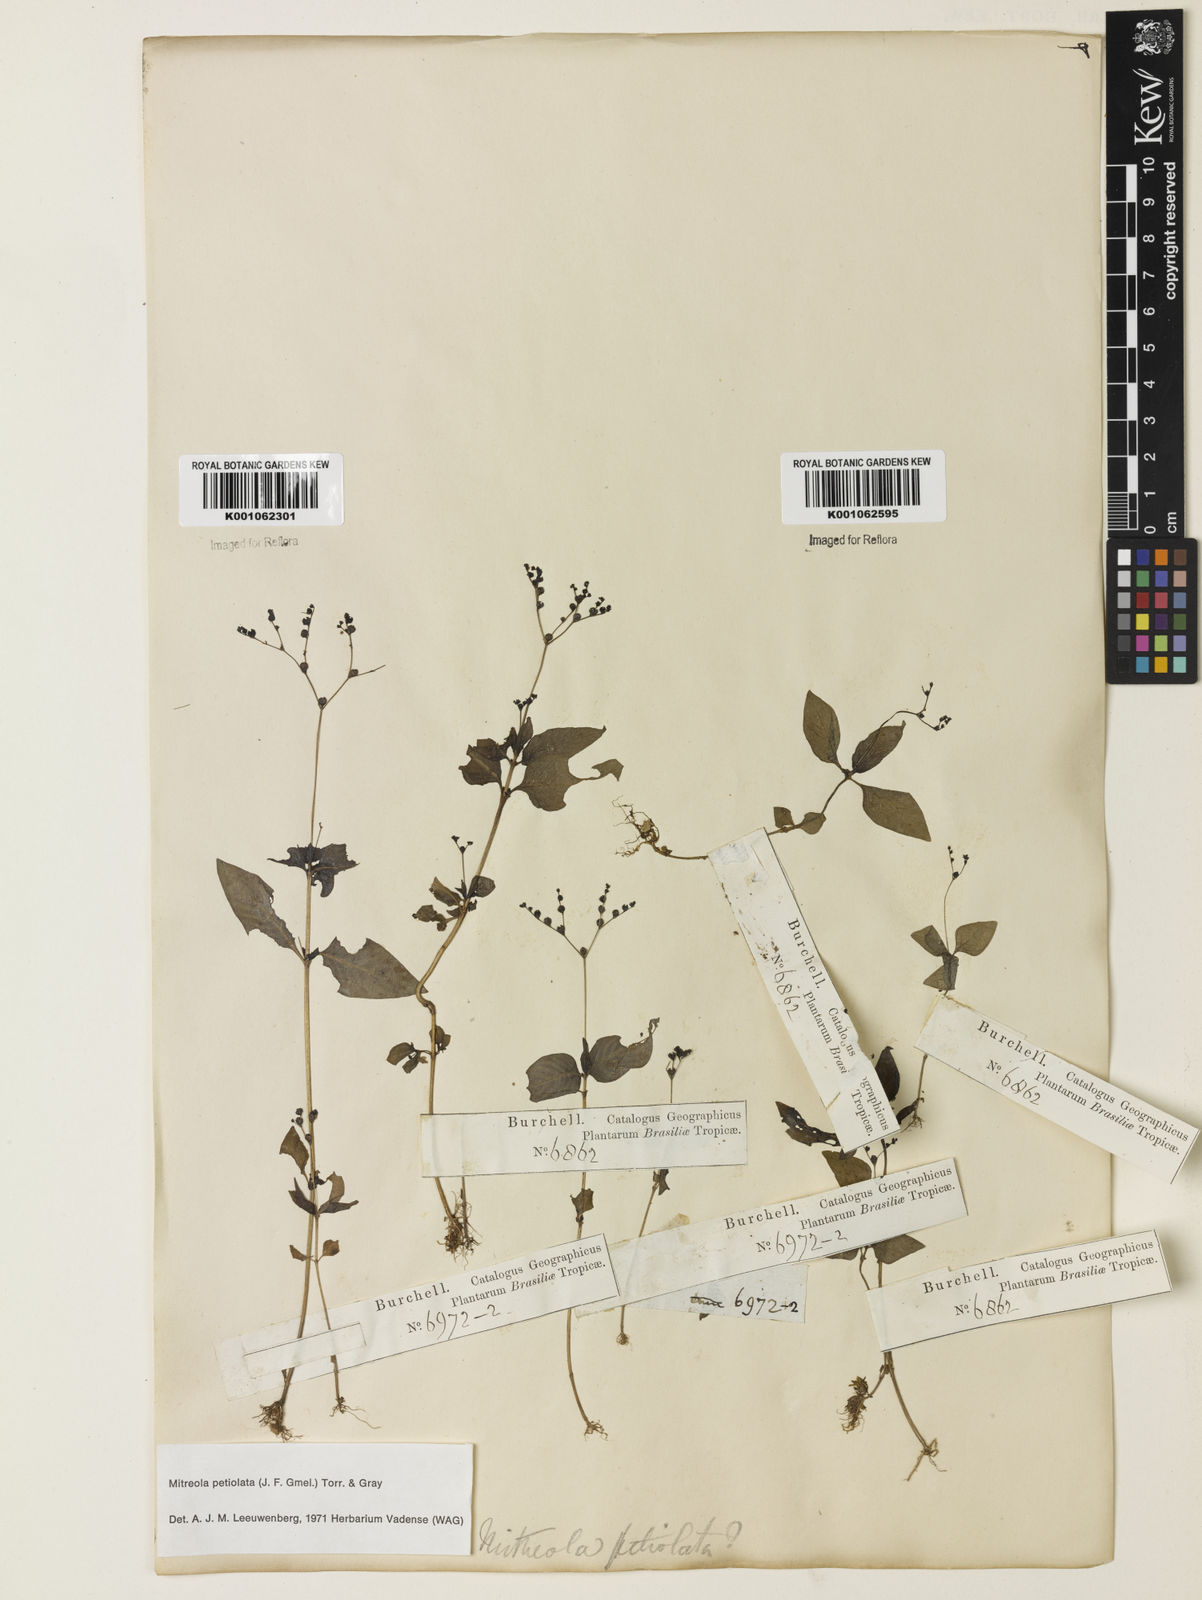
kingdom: Plantae
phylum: Tracheophyta
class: Magnoliopsida
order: Gentianales
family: Loganiaceae
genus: Mitreola
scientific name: Mitreola petiolata
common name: Lax hornpod
